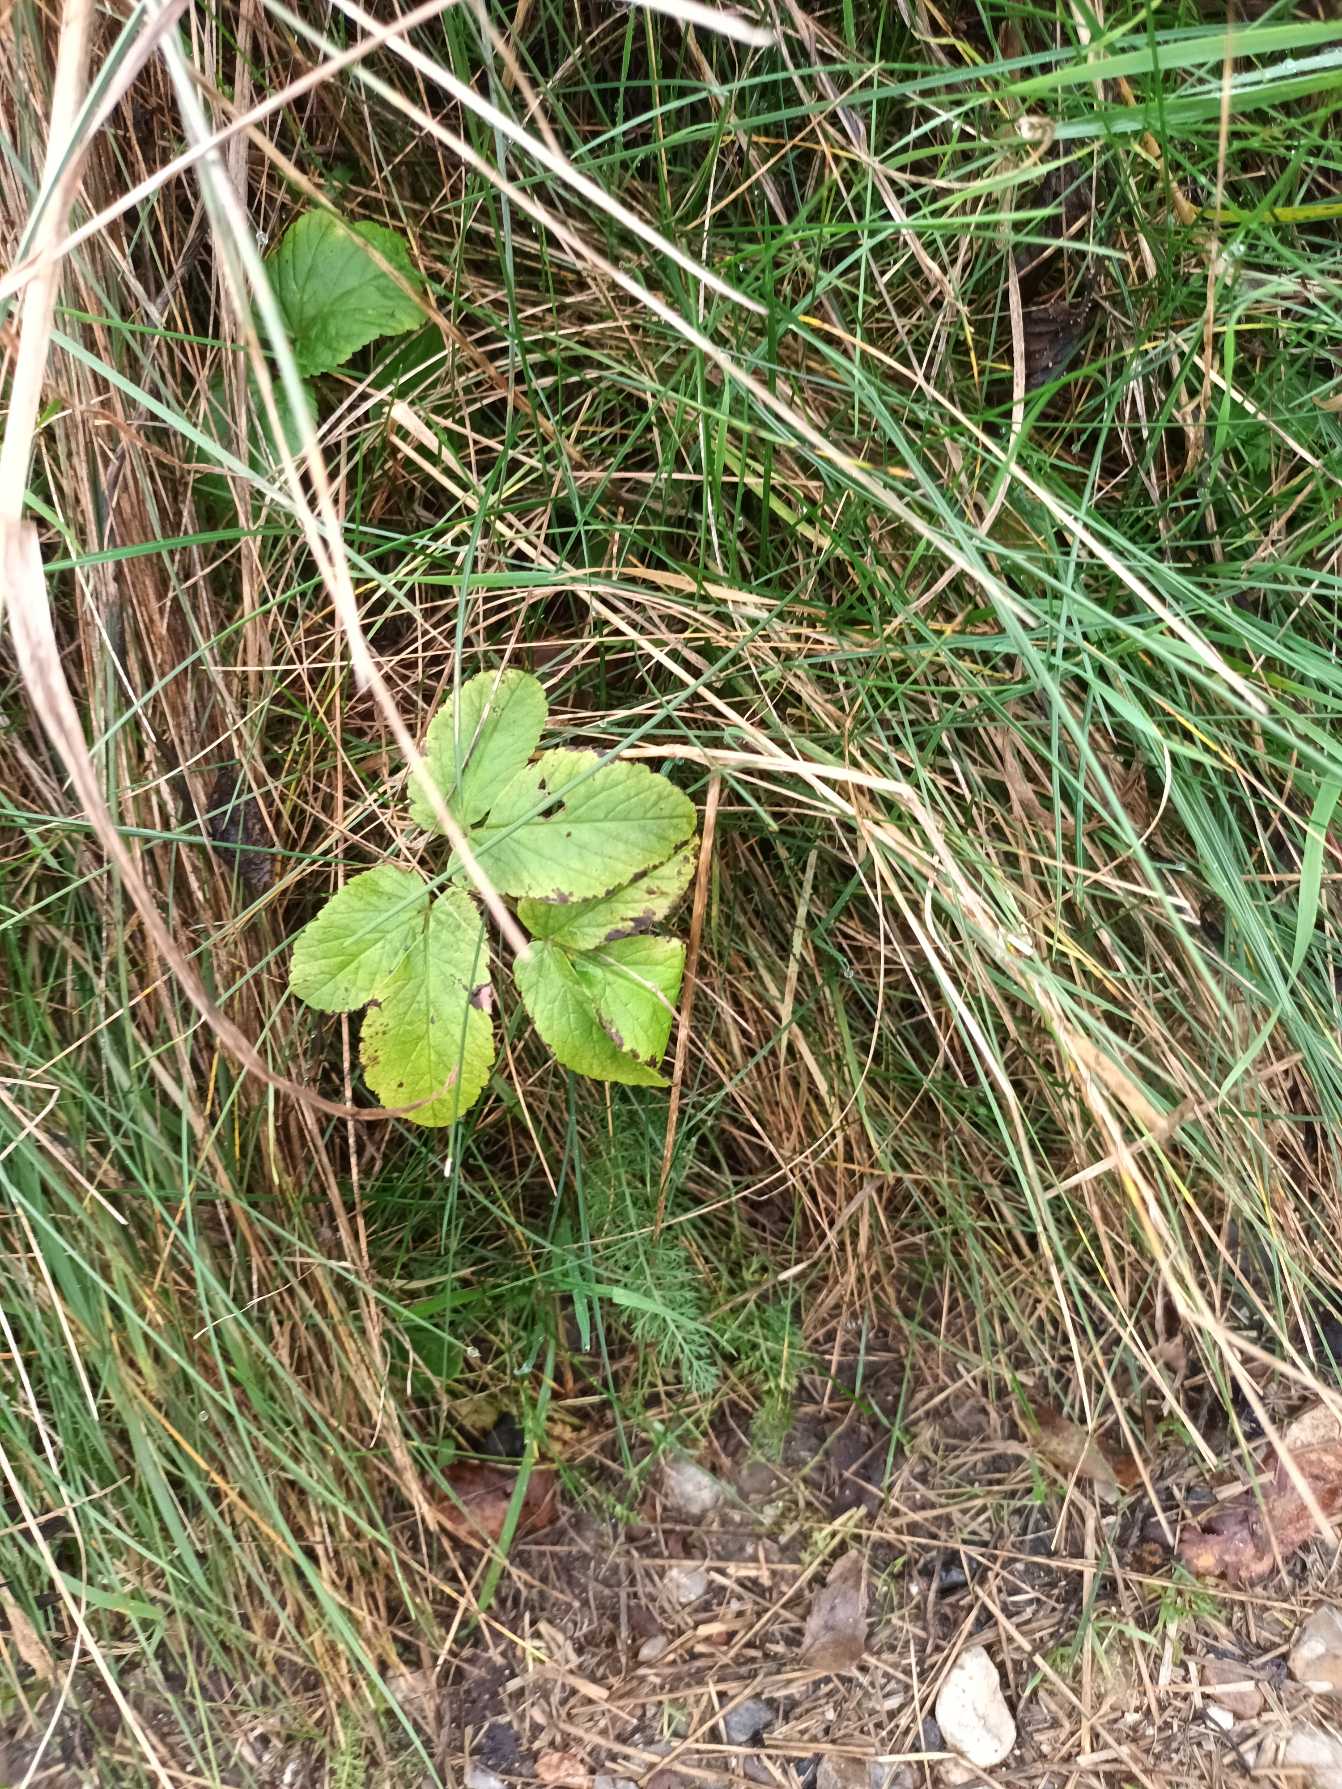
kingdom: Plantae
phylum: Tracheophyta
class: Magnoliopsida
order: Apiales
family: Apiaceae
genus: Aegopodium
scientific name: Aegopodium podagraria
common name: Skvalderkål
